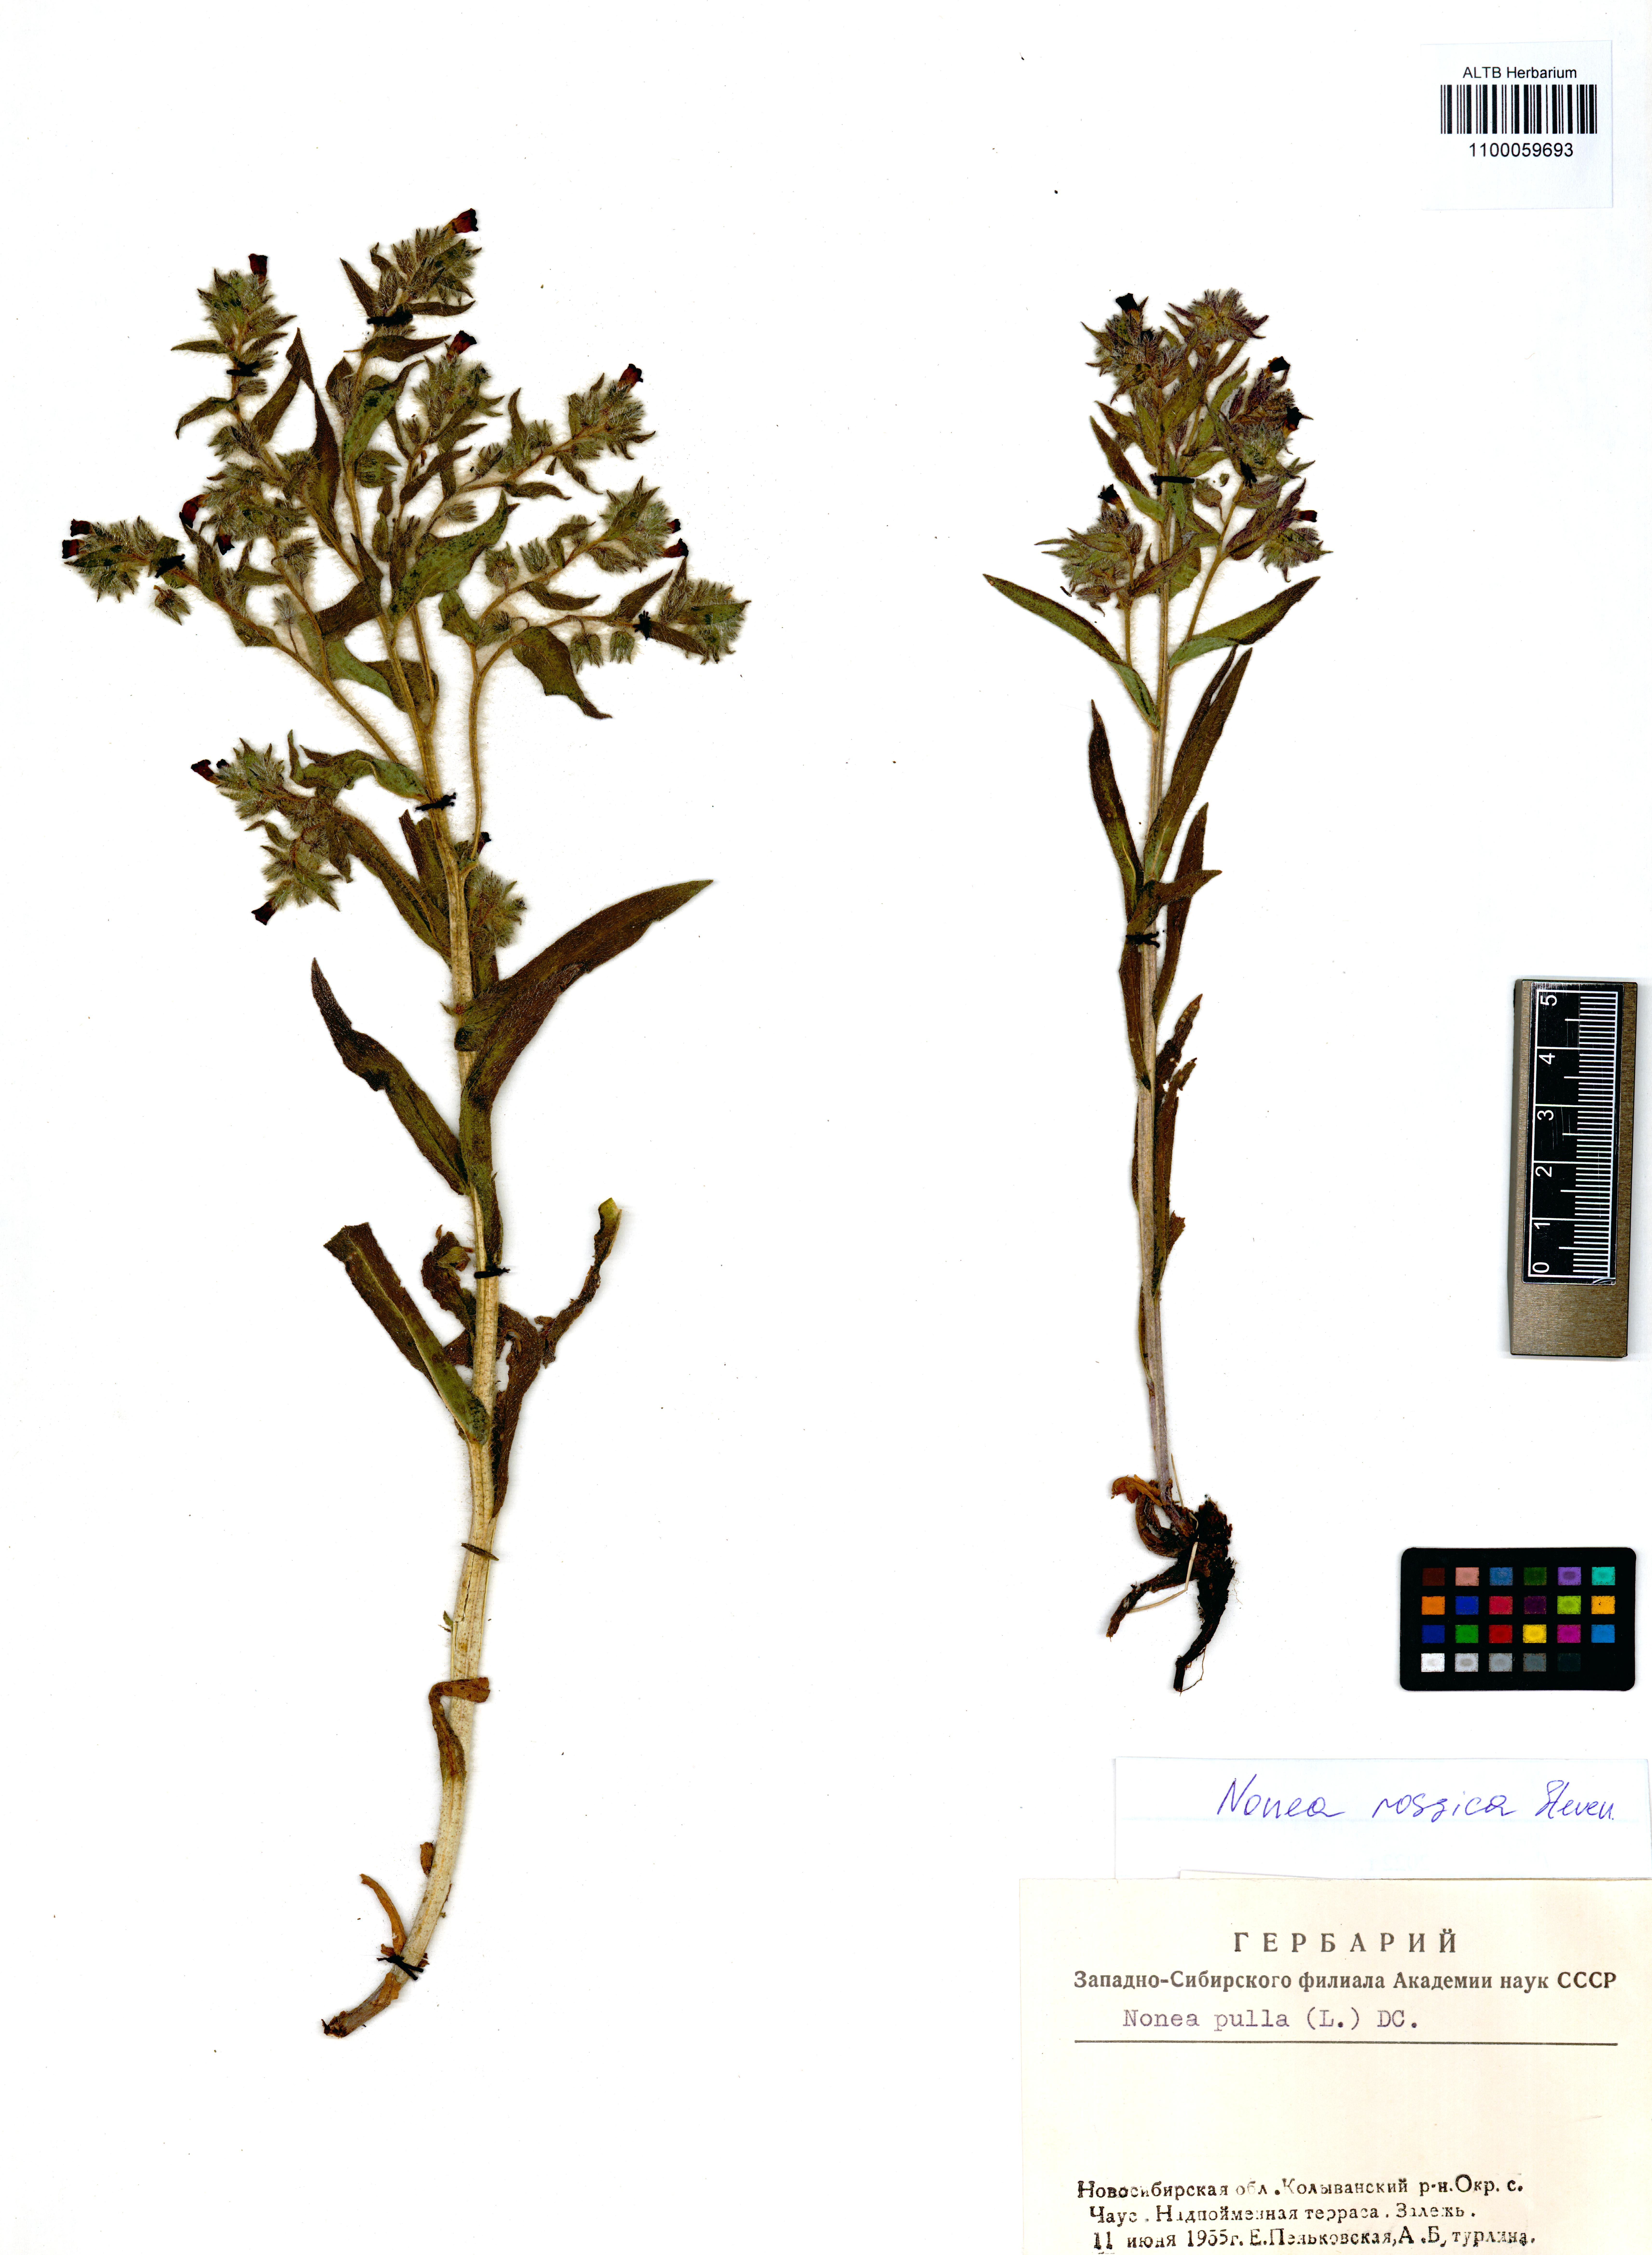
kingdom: Plantae
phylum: Tracheophyta
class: Magnoliopsida
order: Boraginales
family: Boraginaceae
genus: Nonea
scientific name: Nonea pulla
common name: Brown nonea
